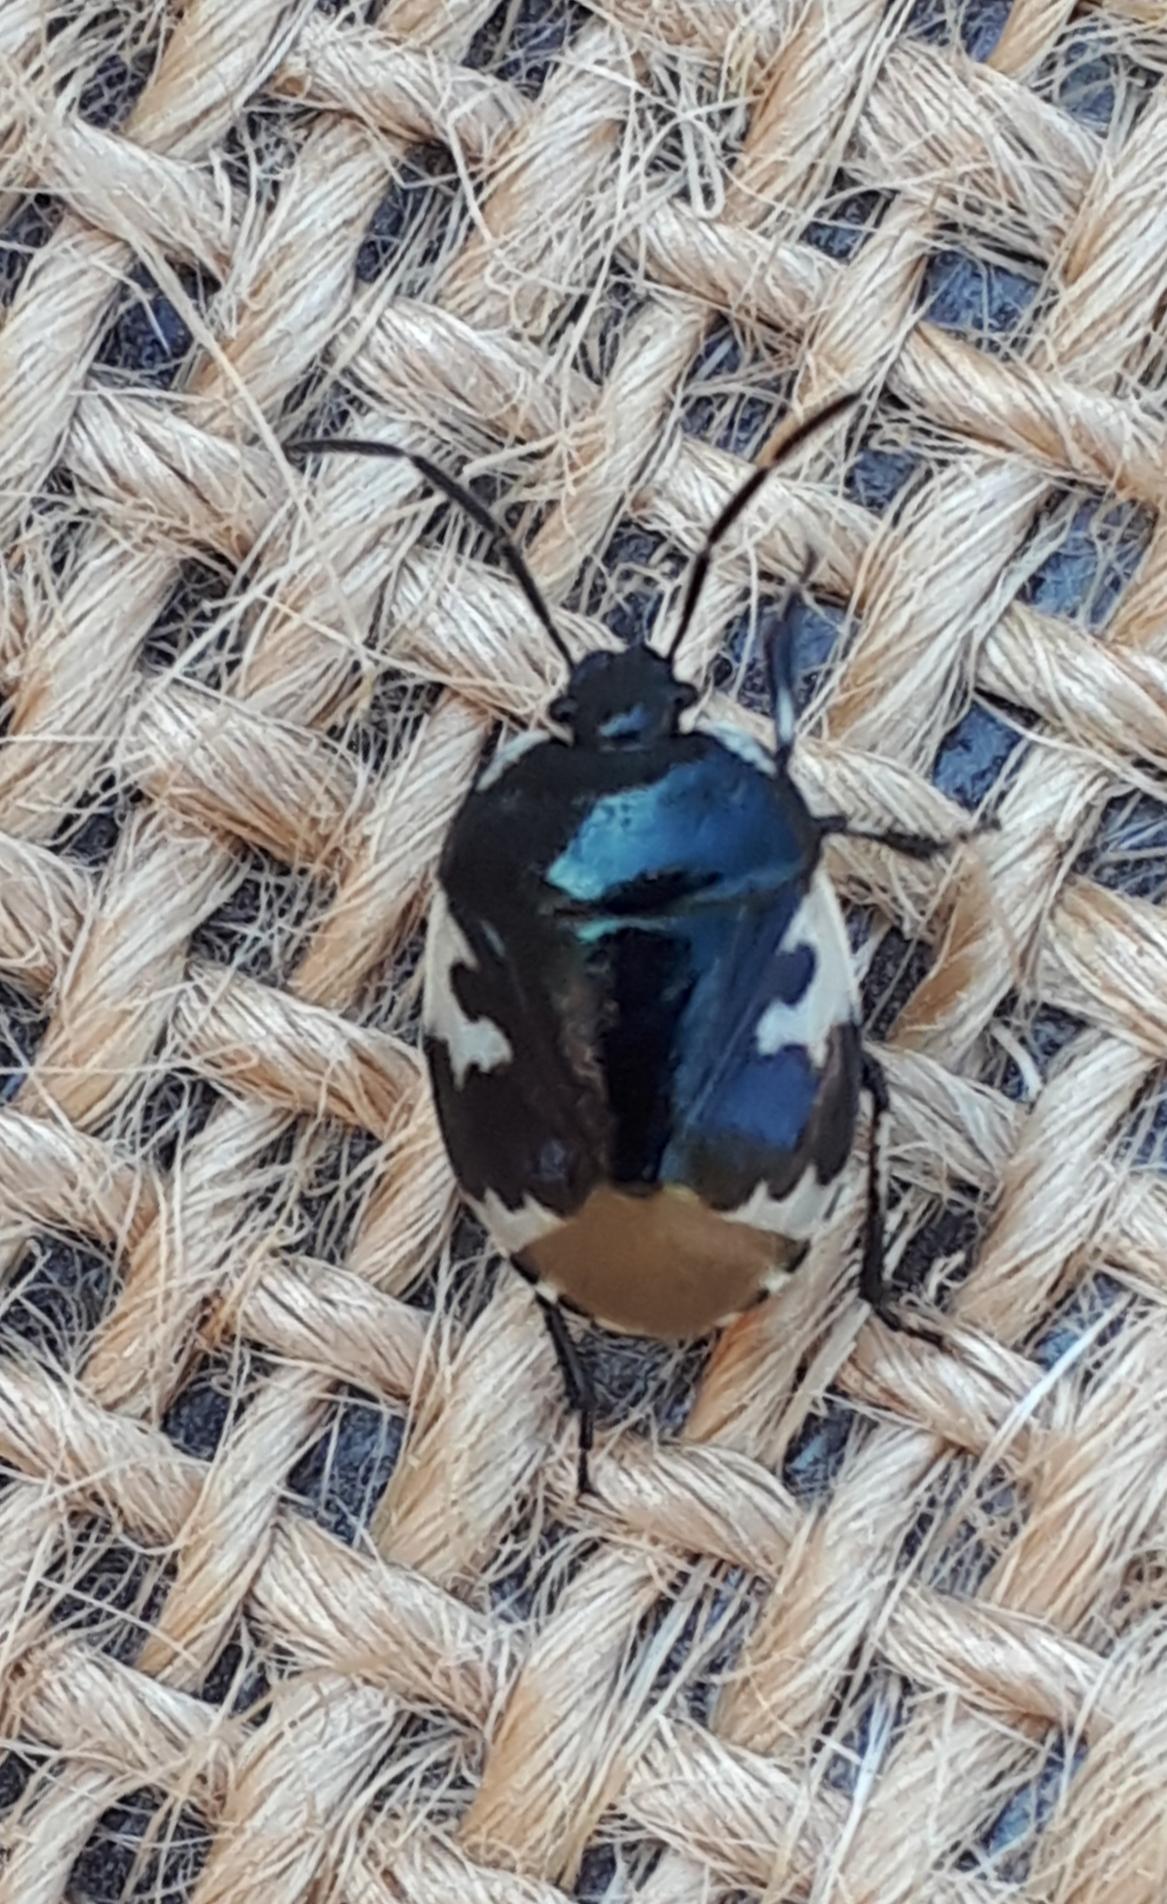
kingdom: Animalia
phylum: Arthropoda
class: Insecta
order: Hemiptera
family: Cydnidae
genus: Tritomegas
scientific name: Tritomegas bicolor
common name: Spættet tornben
